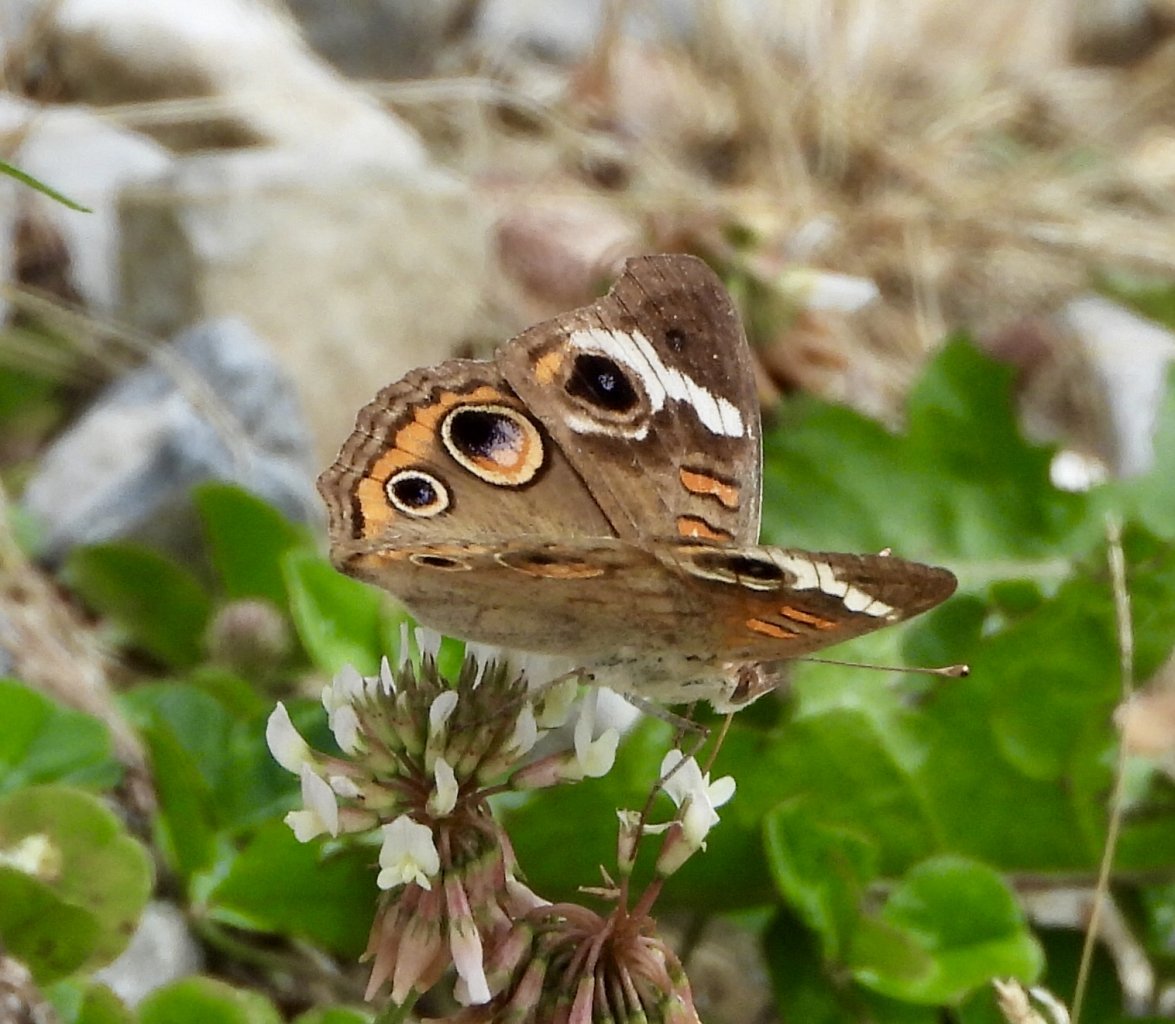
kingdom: Animalia
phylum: Arthropoda
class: Insecta
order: Lepidoptera
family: Nymphalidae
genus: Junonia
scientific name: Junonia coenia
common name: Common Buckeye
